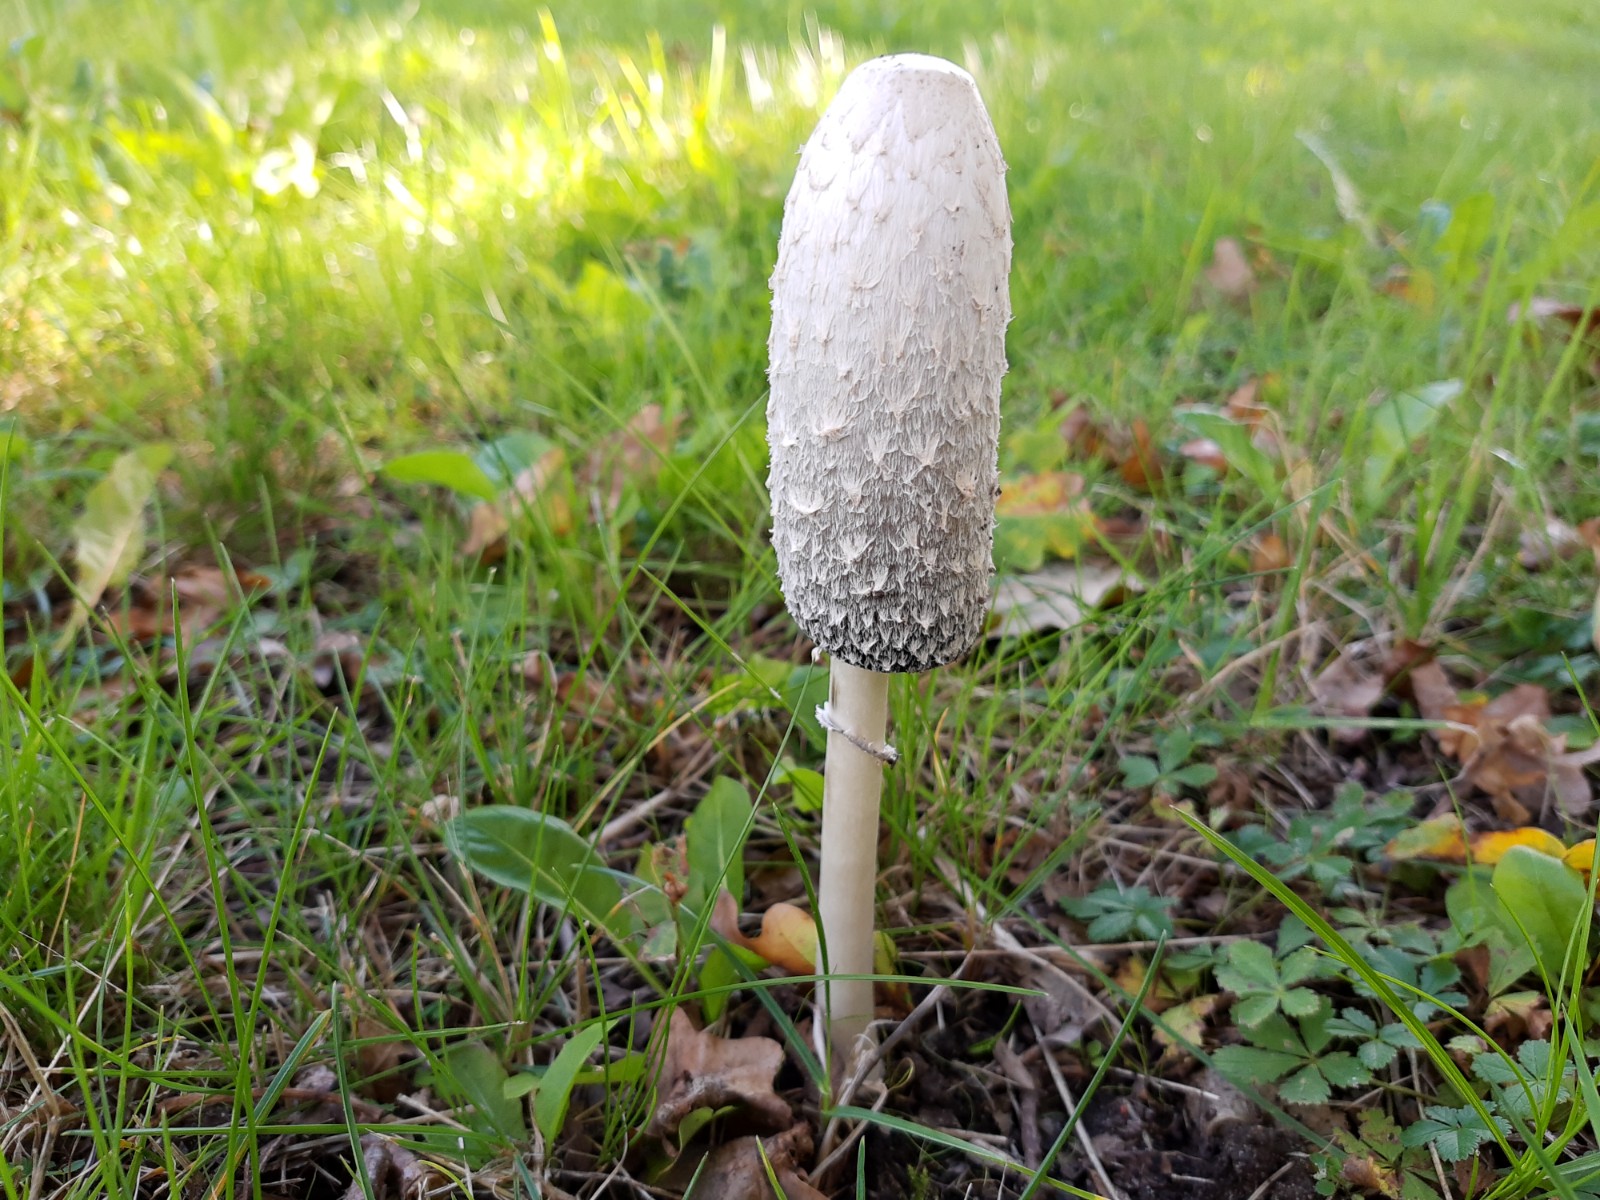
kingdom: Fungi
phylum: Basidiomycota
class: Agaricomycetes
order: Agaricales
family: Agaricaceae
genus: Coprinus
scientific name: Coprinus comatus
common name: stor parykhat
